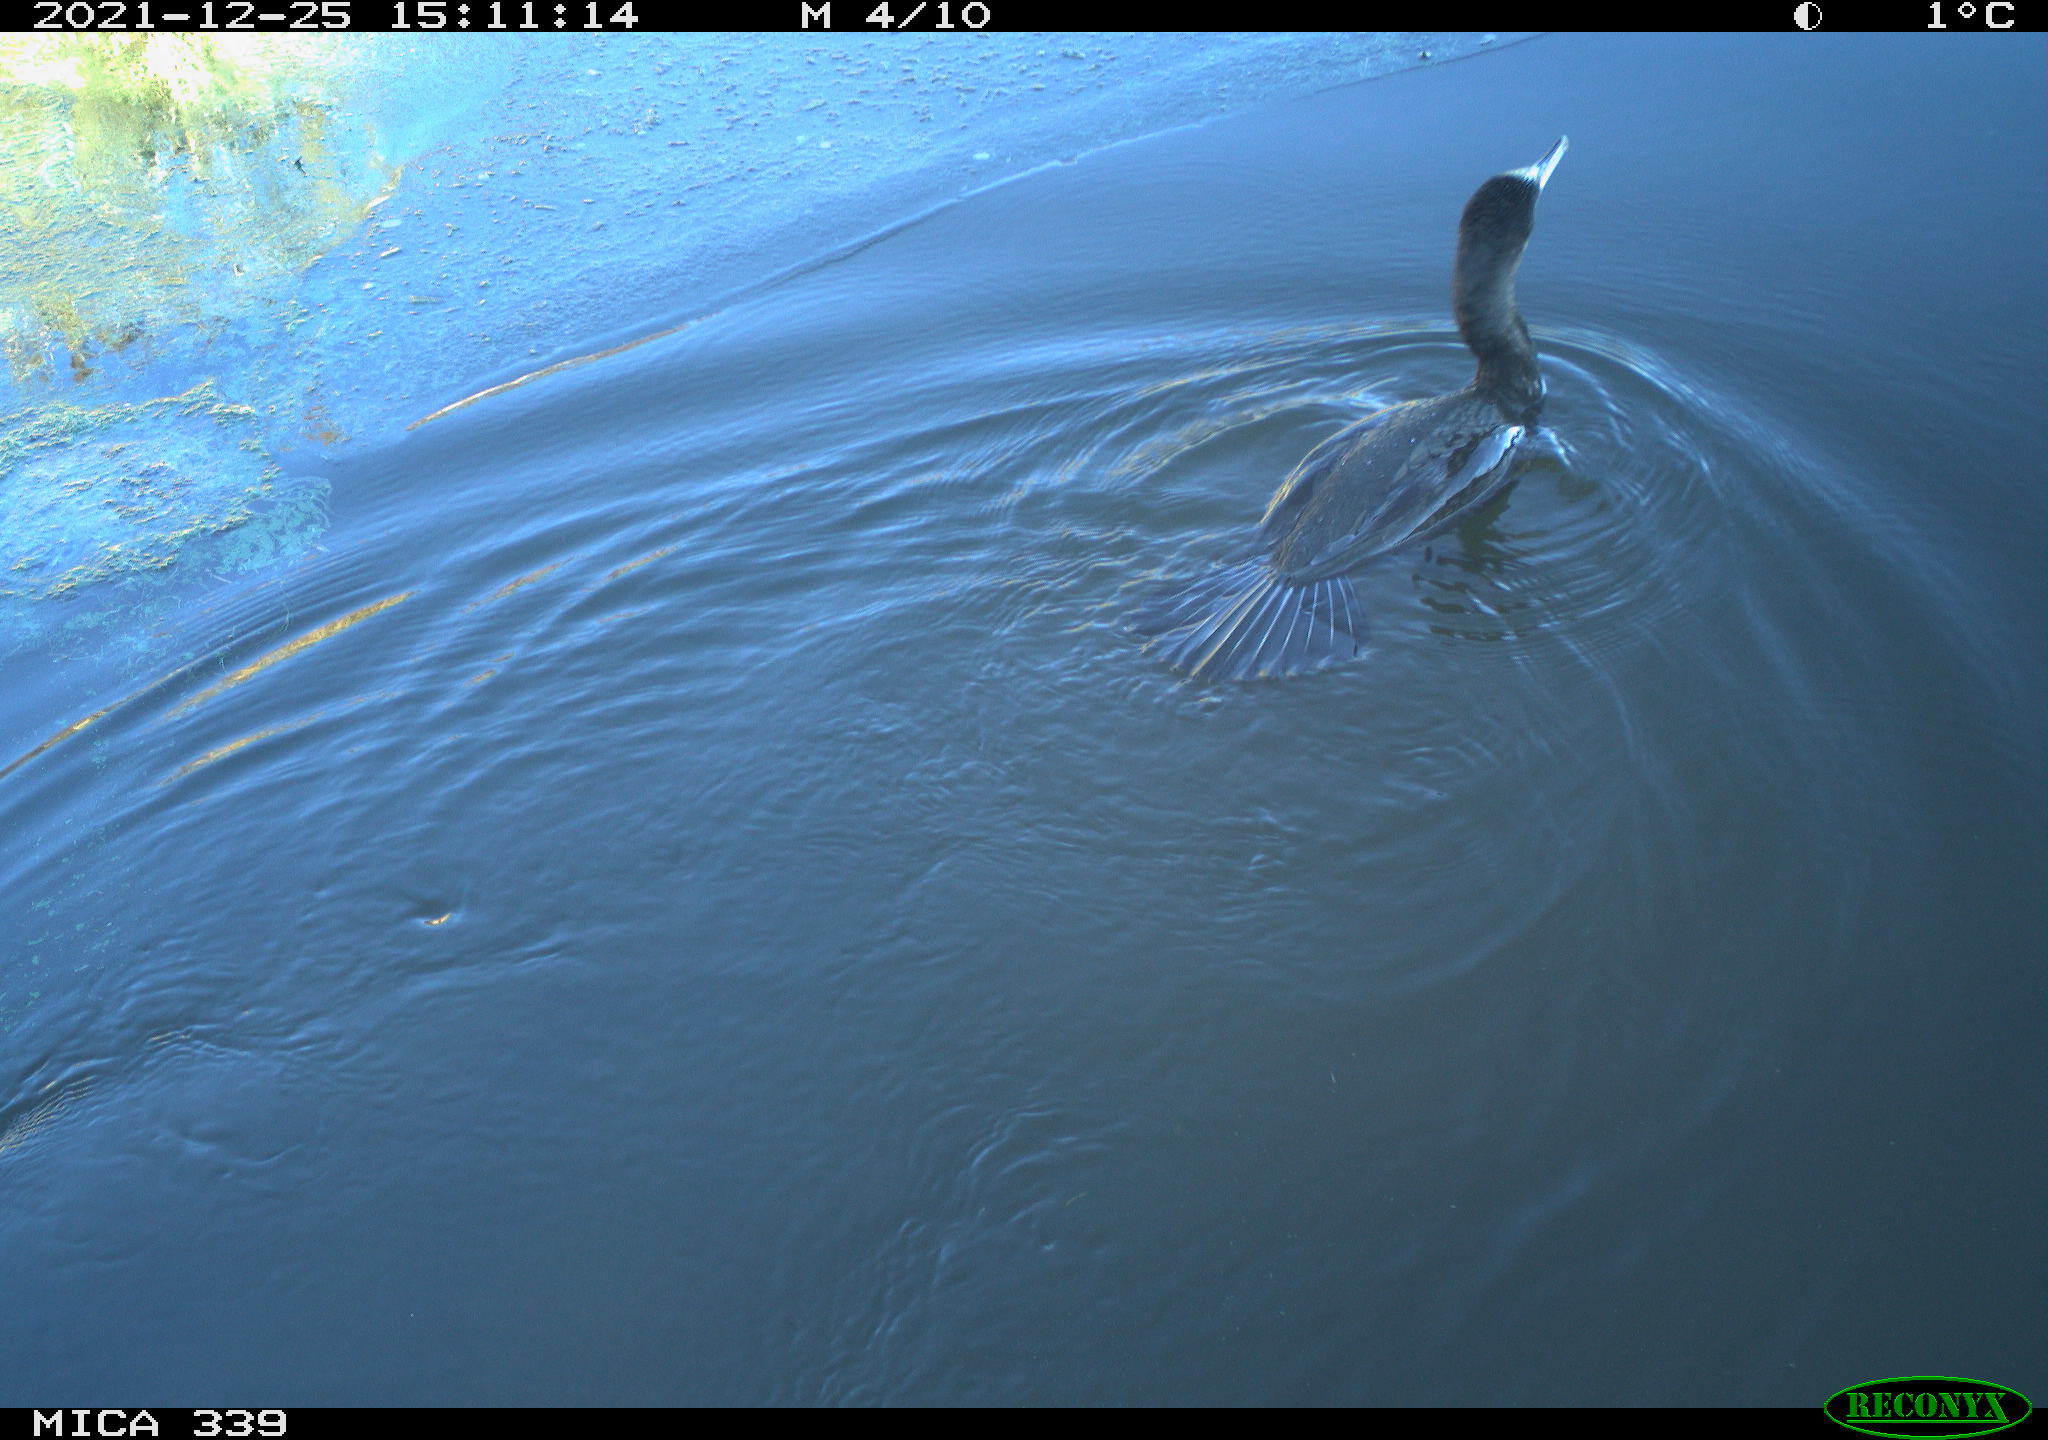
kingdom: Animalia
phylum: Chordata
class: Aves
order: Suliformes
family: Phalacrocoracidae
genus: Phalacrocorax
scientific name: Phalacrocorax carbo
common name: Great cormorant
